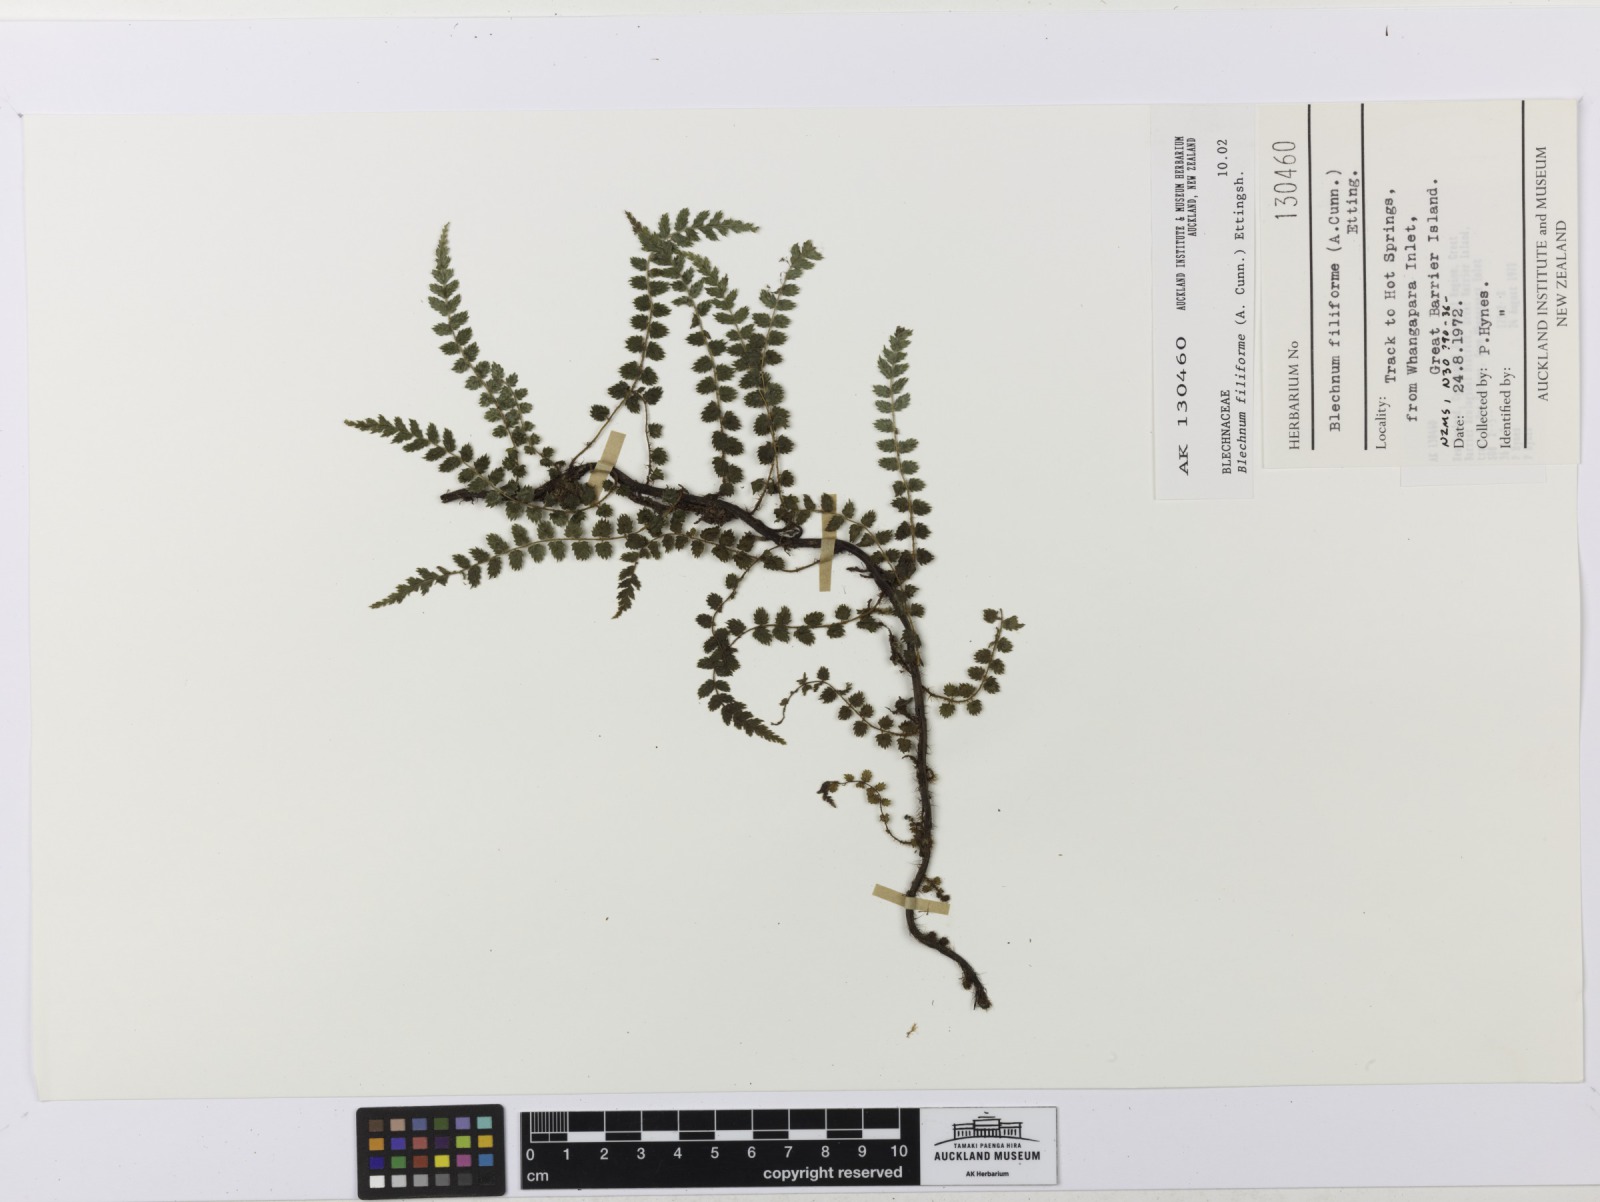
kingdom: Plantae
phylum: Tracheophyta
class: Polypodiopsida
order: Polypodiales
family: Blechnaceae
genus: Icarus
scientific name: Icarus filiformis
